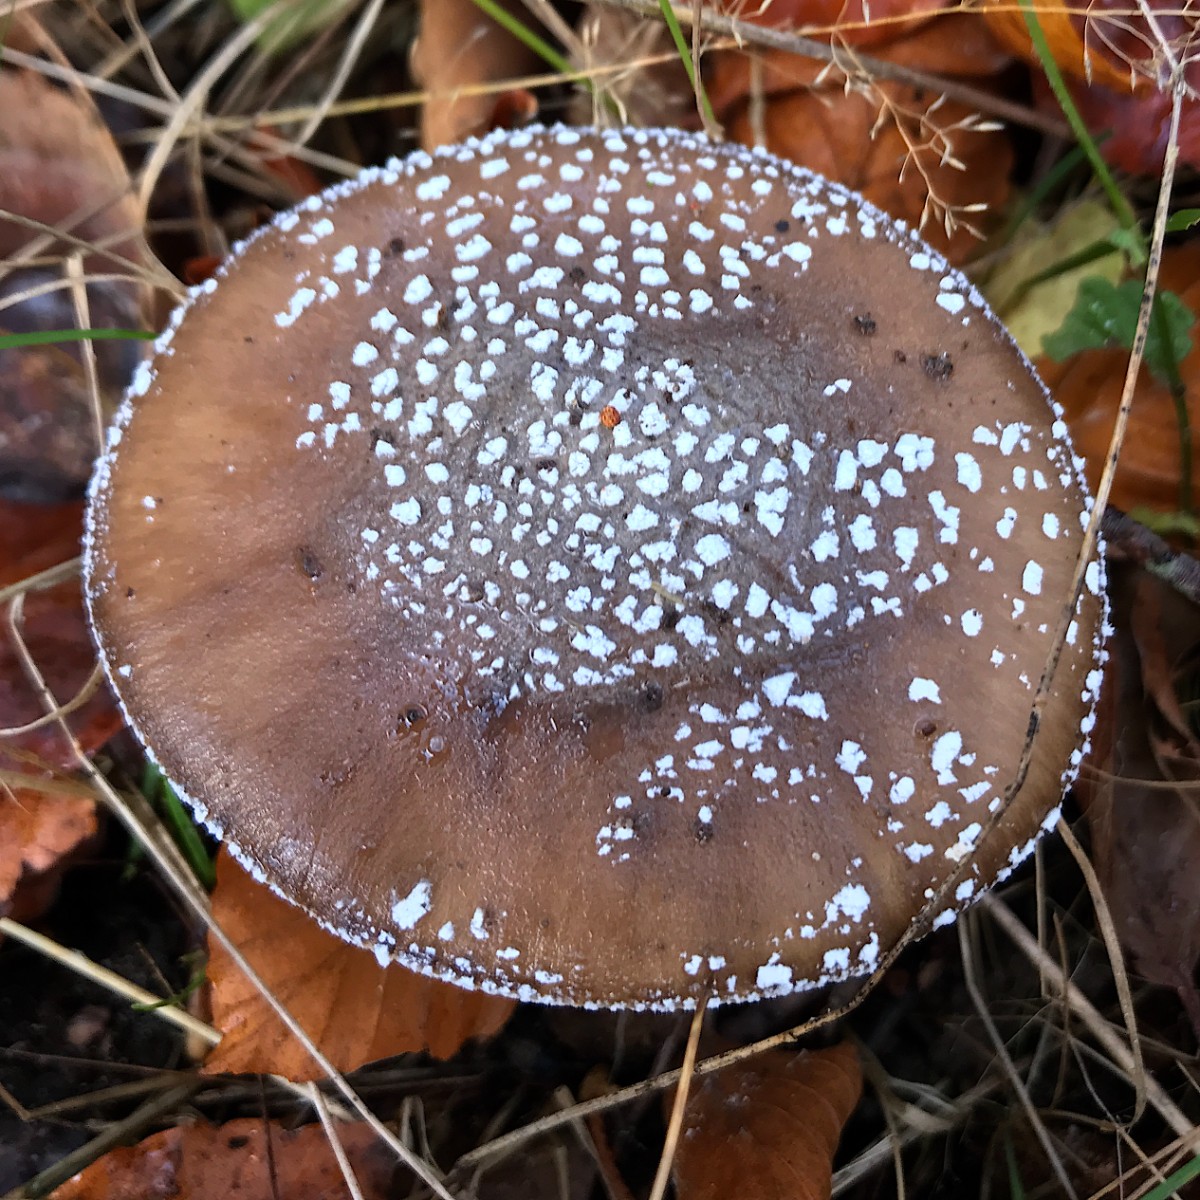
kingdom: Fungi
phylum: Basidiomycota
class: Agaricomycetes
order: Agaricales
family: Amanitaceae
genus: Amanita
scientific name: Amanita pantherina
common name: panter-fluesvamp
